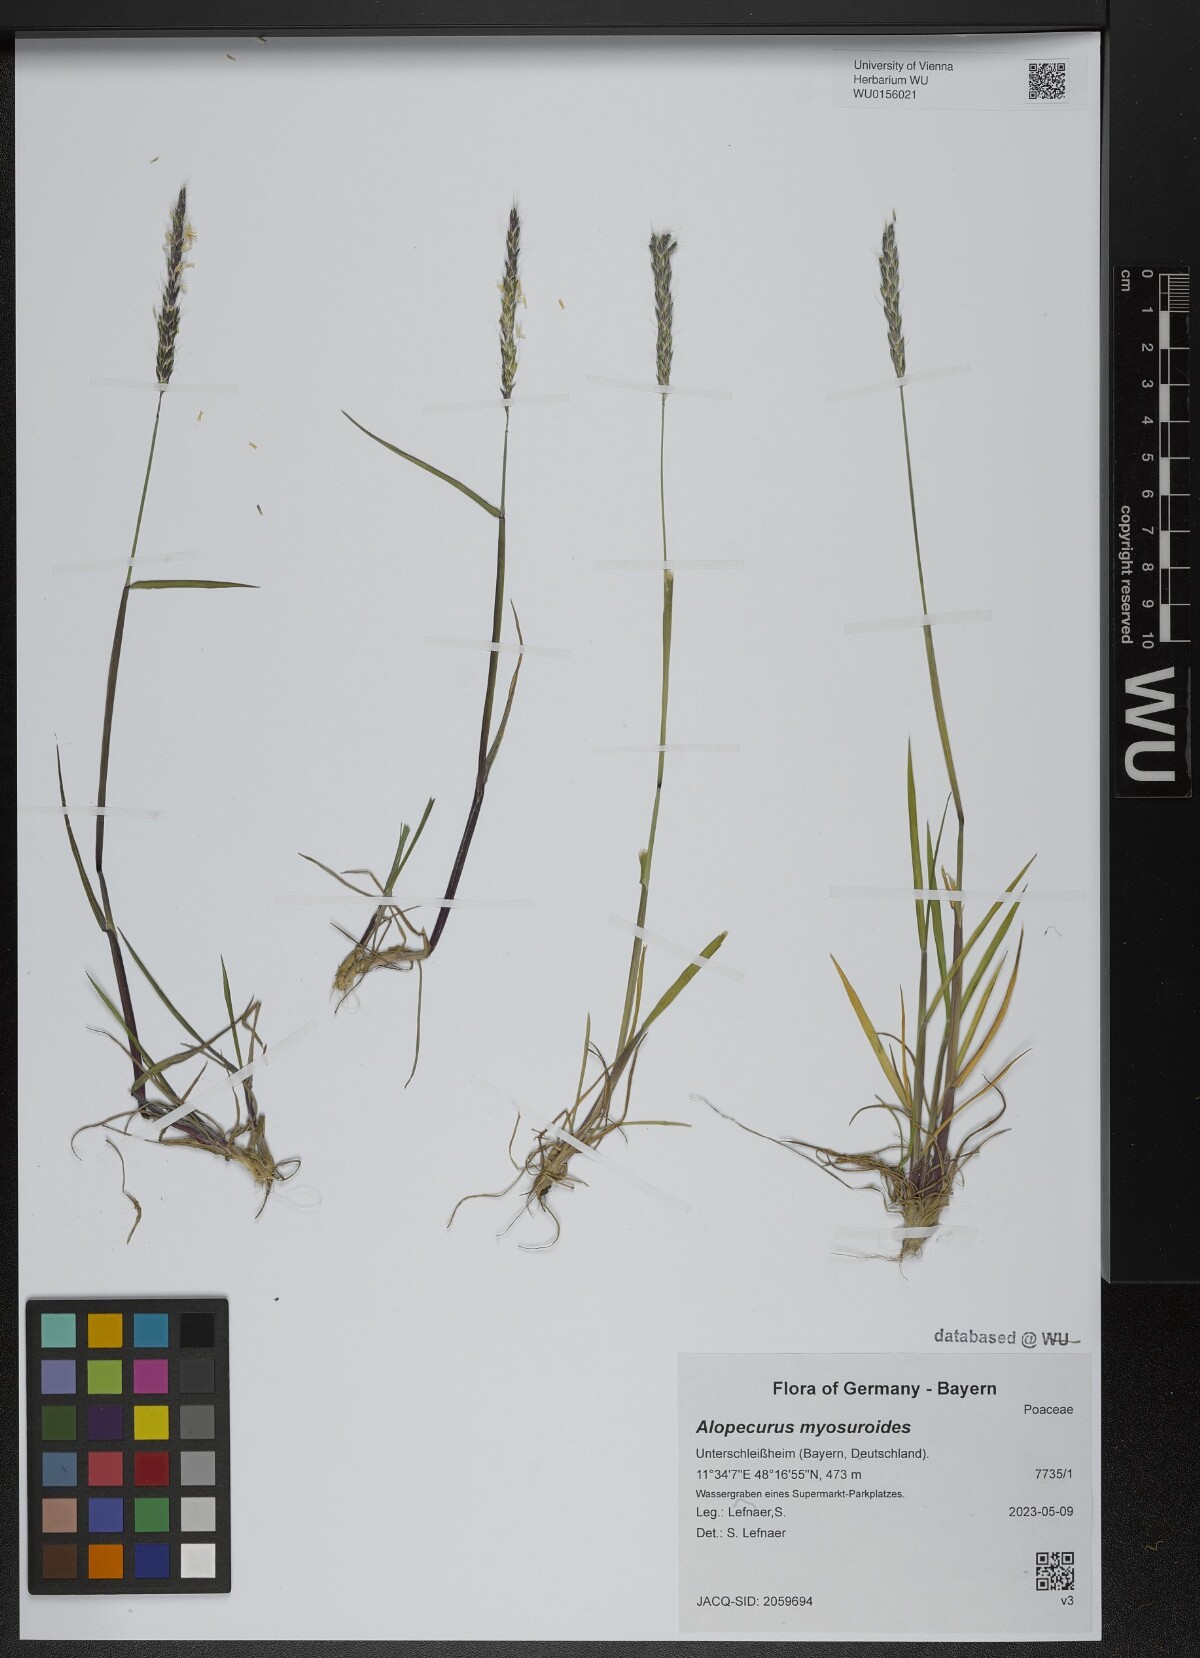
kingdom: Plantae
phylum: Tracheophyta
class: Liliopsida
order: Poales
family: Poaceae
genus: Alopecurus
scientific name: Alopecurus myosuroides
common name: Black-grass
